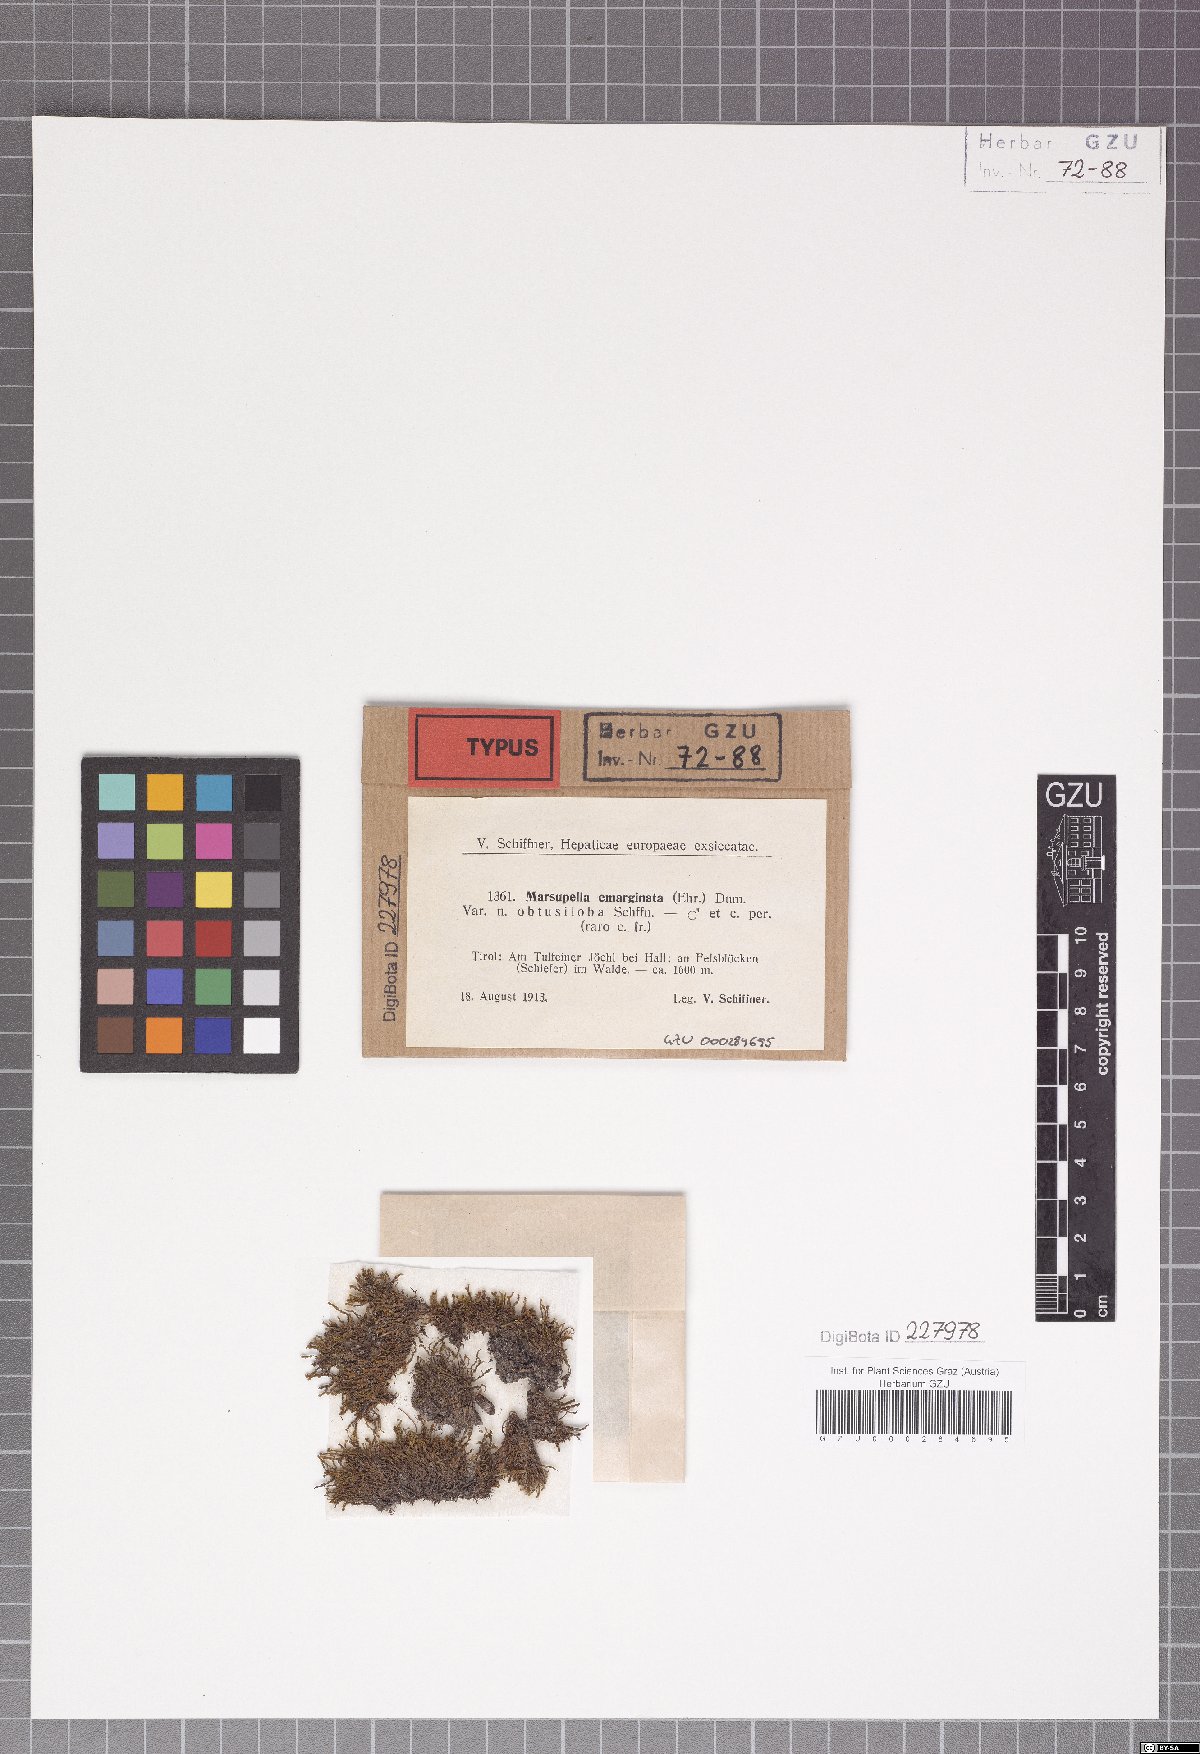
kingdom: Plantae
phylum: Marchantiophyta
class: Jungermanniopsida
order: Jungermanniales
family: Gymnomitriaceae
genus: Marsupella
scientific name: Marsupella emarginata
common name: Notched rustwort
